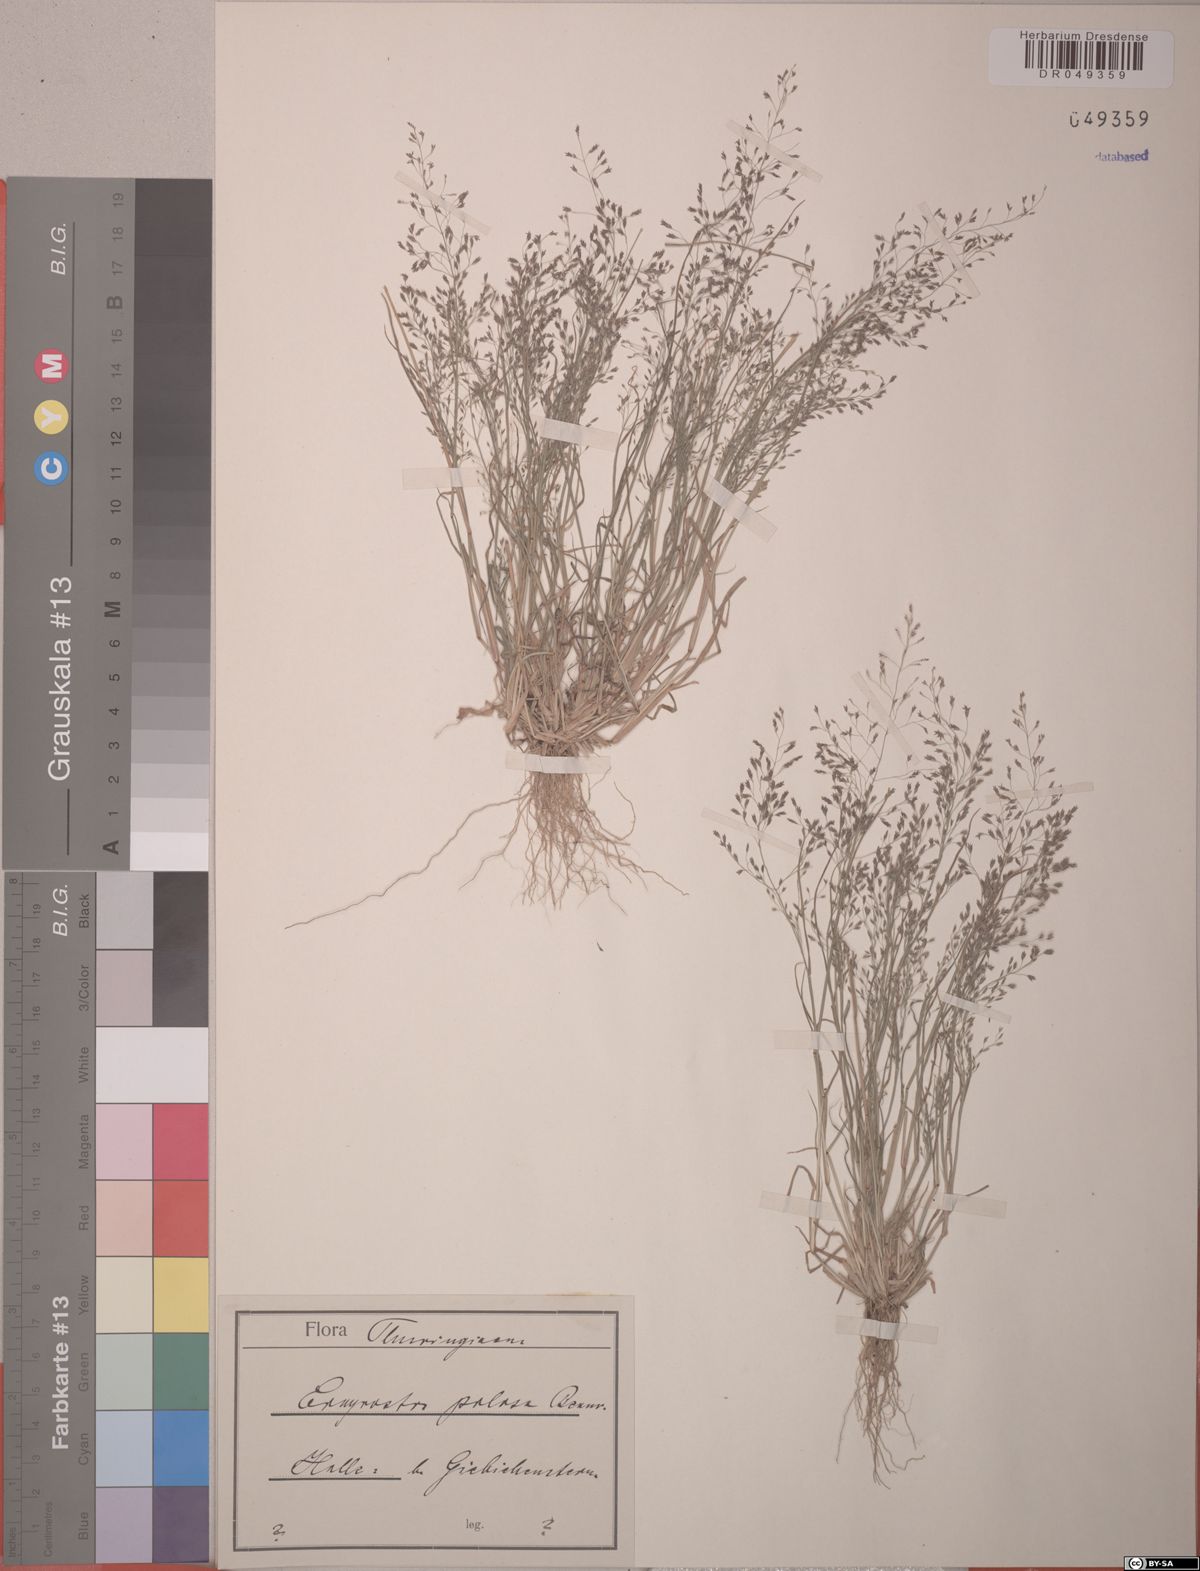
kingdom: Plantae
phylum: Tracheophyta
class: Liliopsida
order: Poales
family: Poaceae
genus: Eragrostis
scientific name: Eragrostis pilosa
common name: Indian lovegrass
